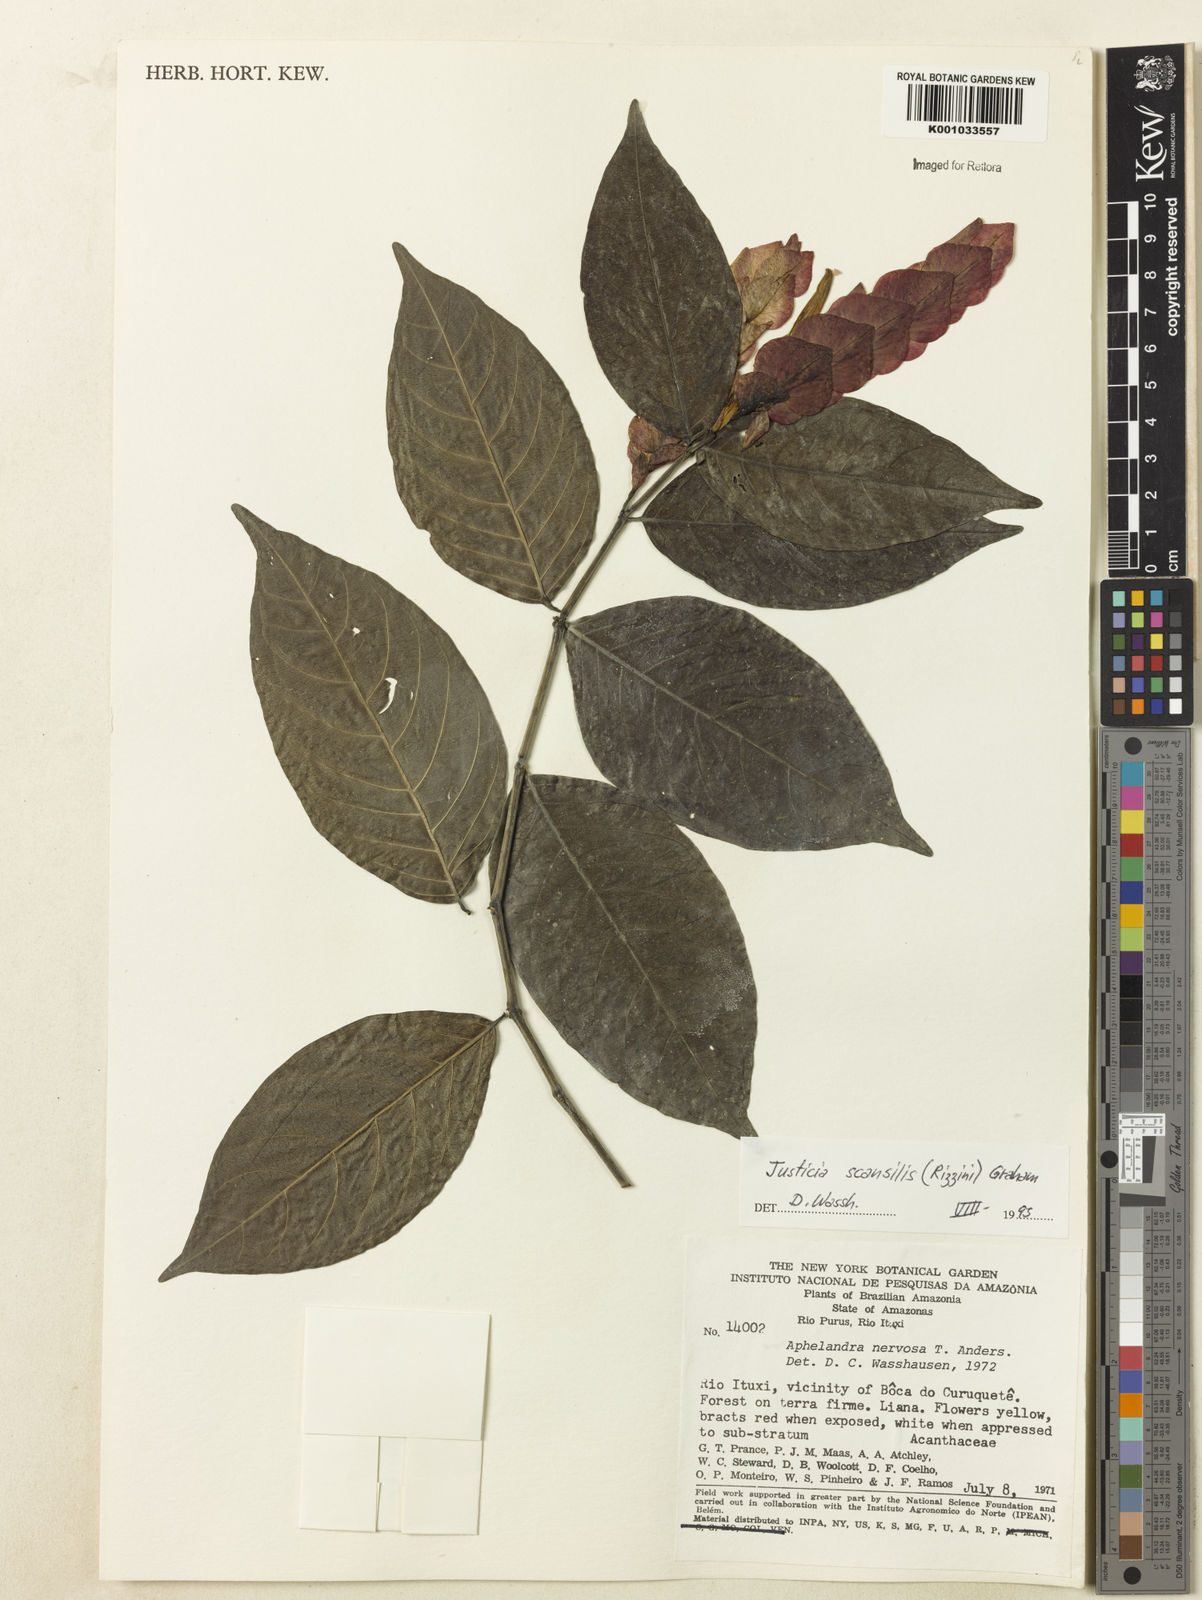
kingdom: Plantae
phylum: Tracheophyta
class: Magnoliopsida
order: Lamiales
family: Acanthaceae
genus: Justicia
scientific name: Justicia scansilis
